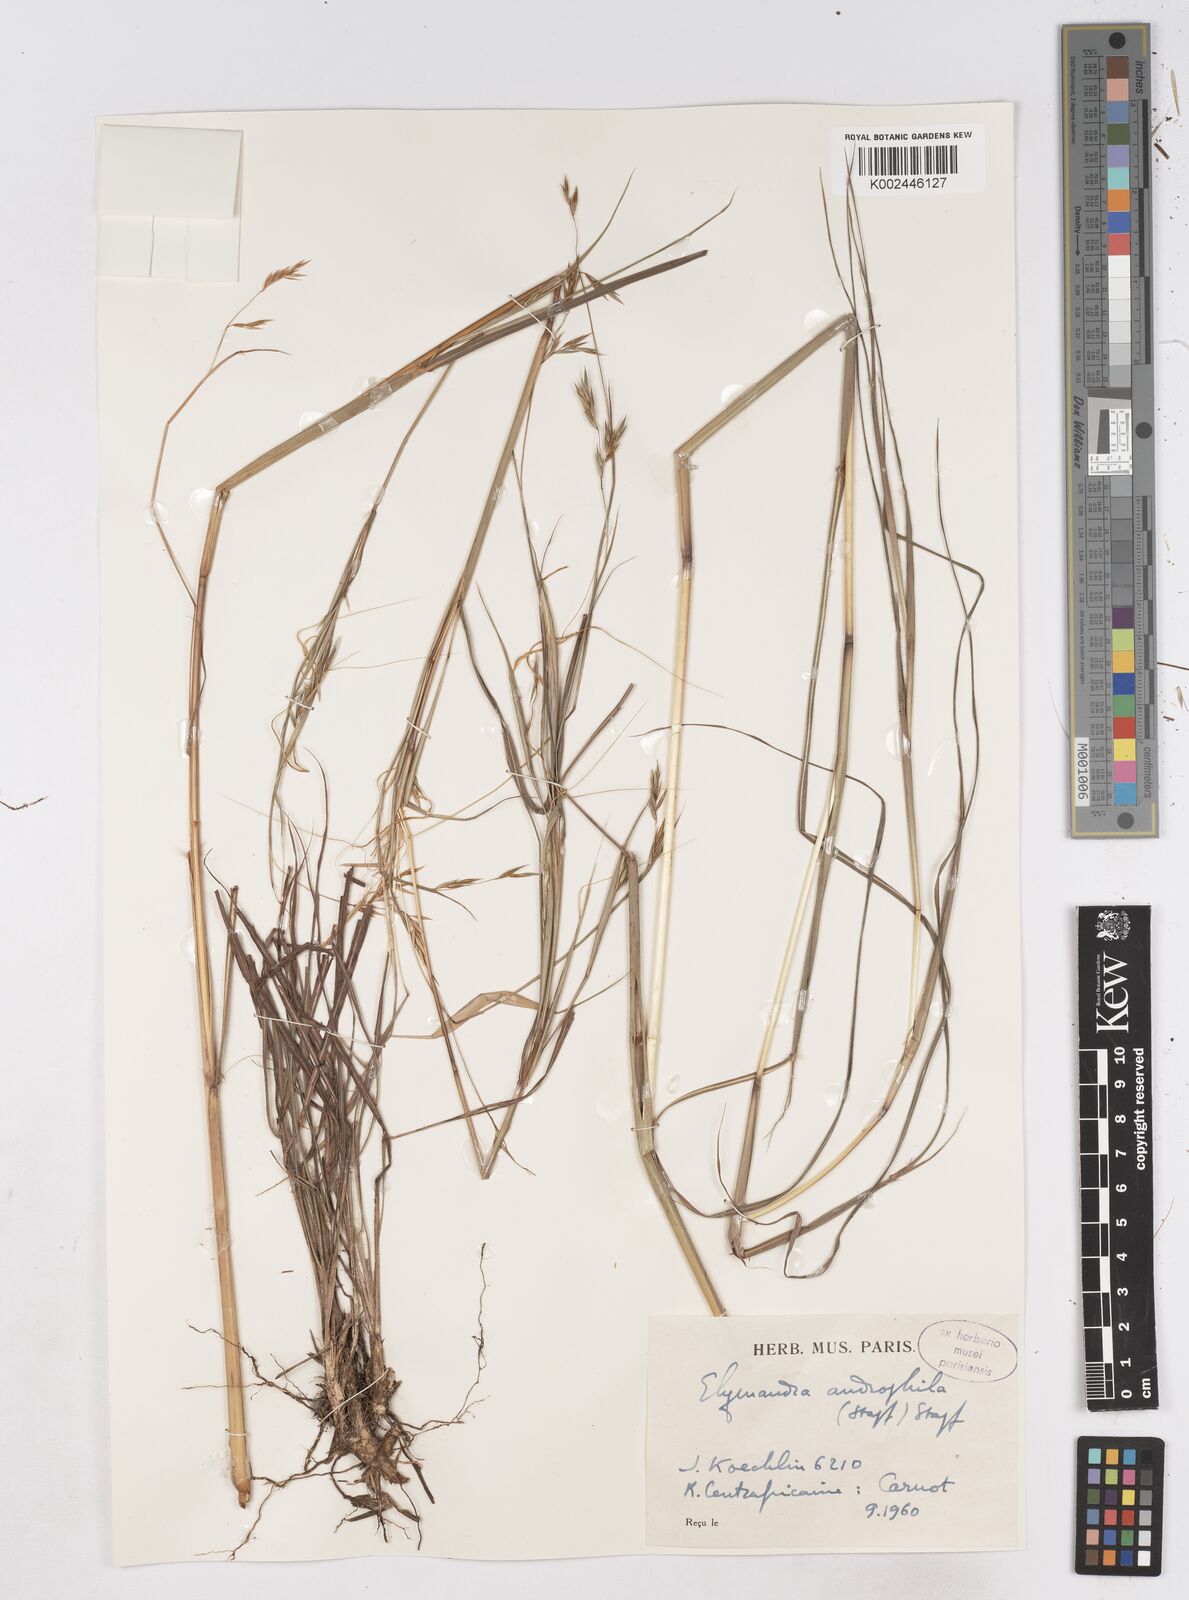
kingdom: Plantae
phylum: Tracheophyta
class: Liliopsida
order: Poales
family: Poaceae
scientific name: Poaceae
